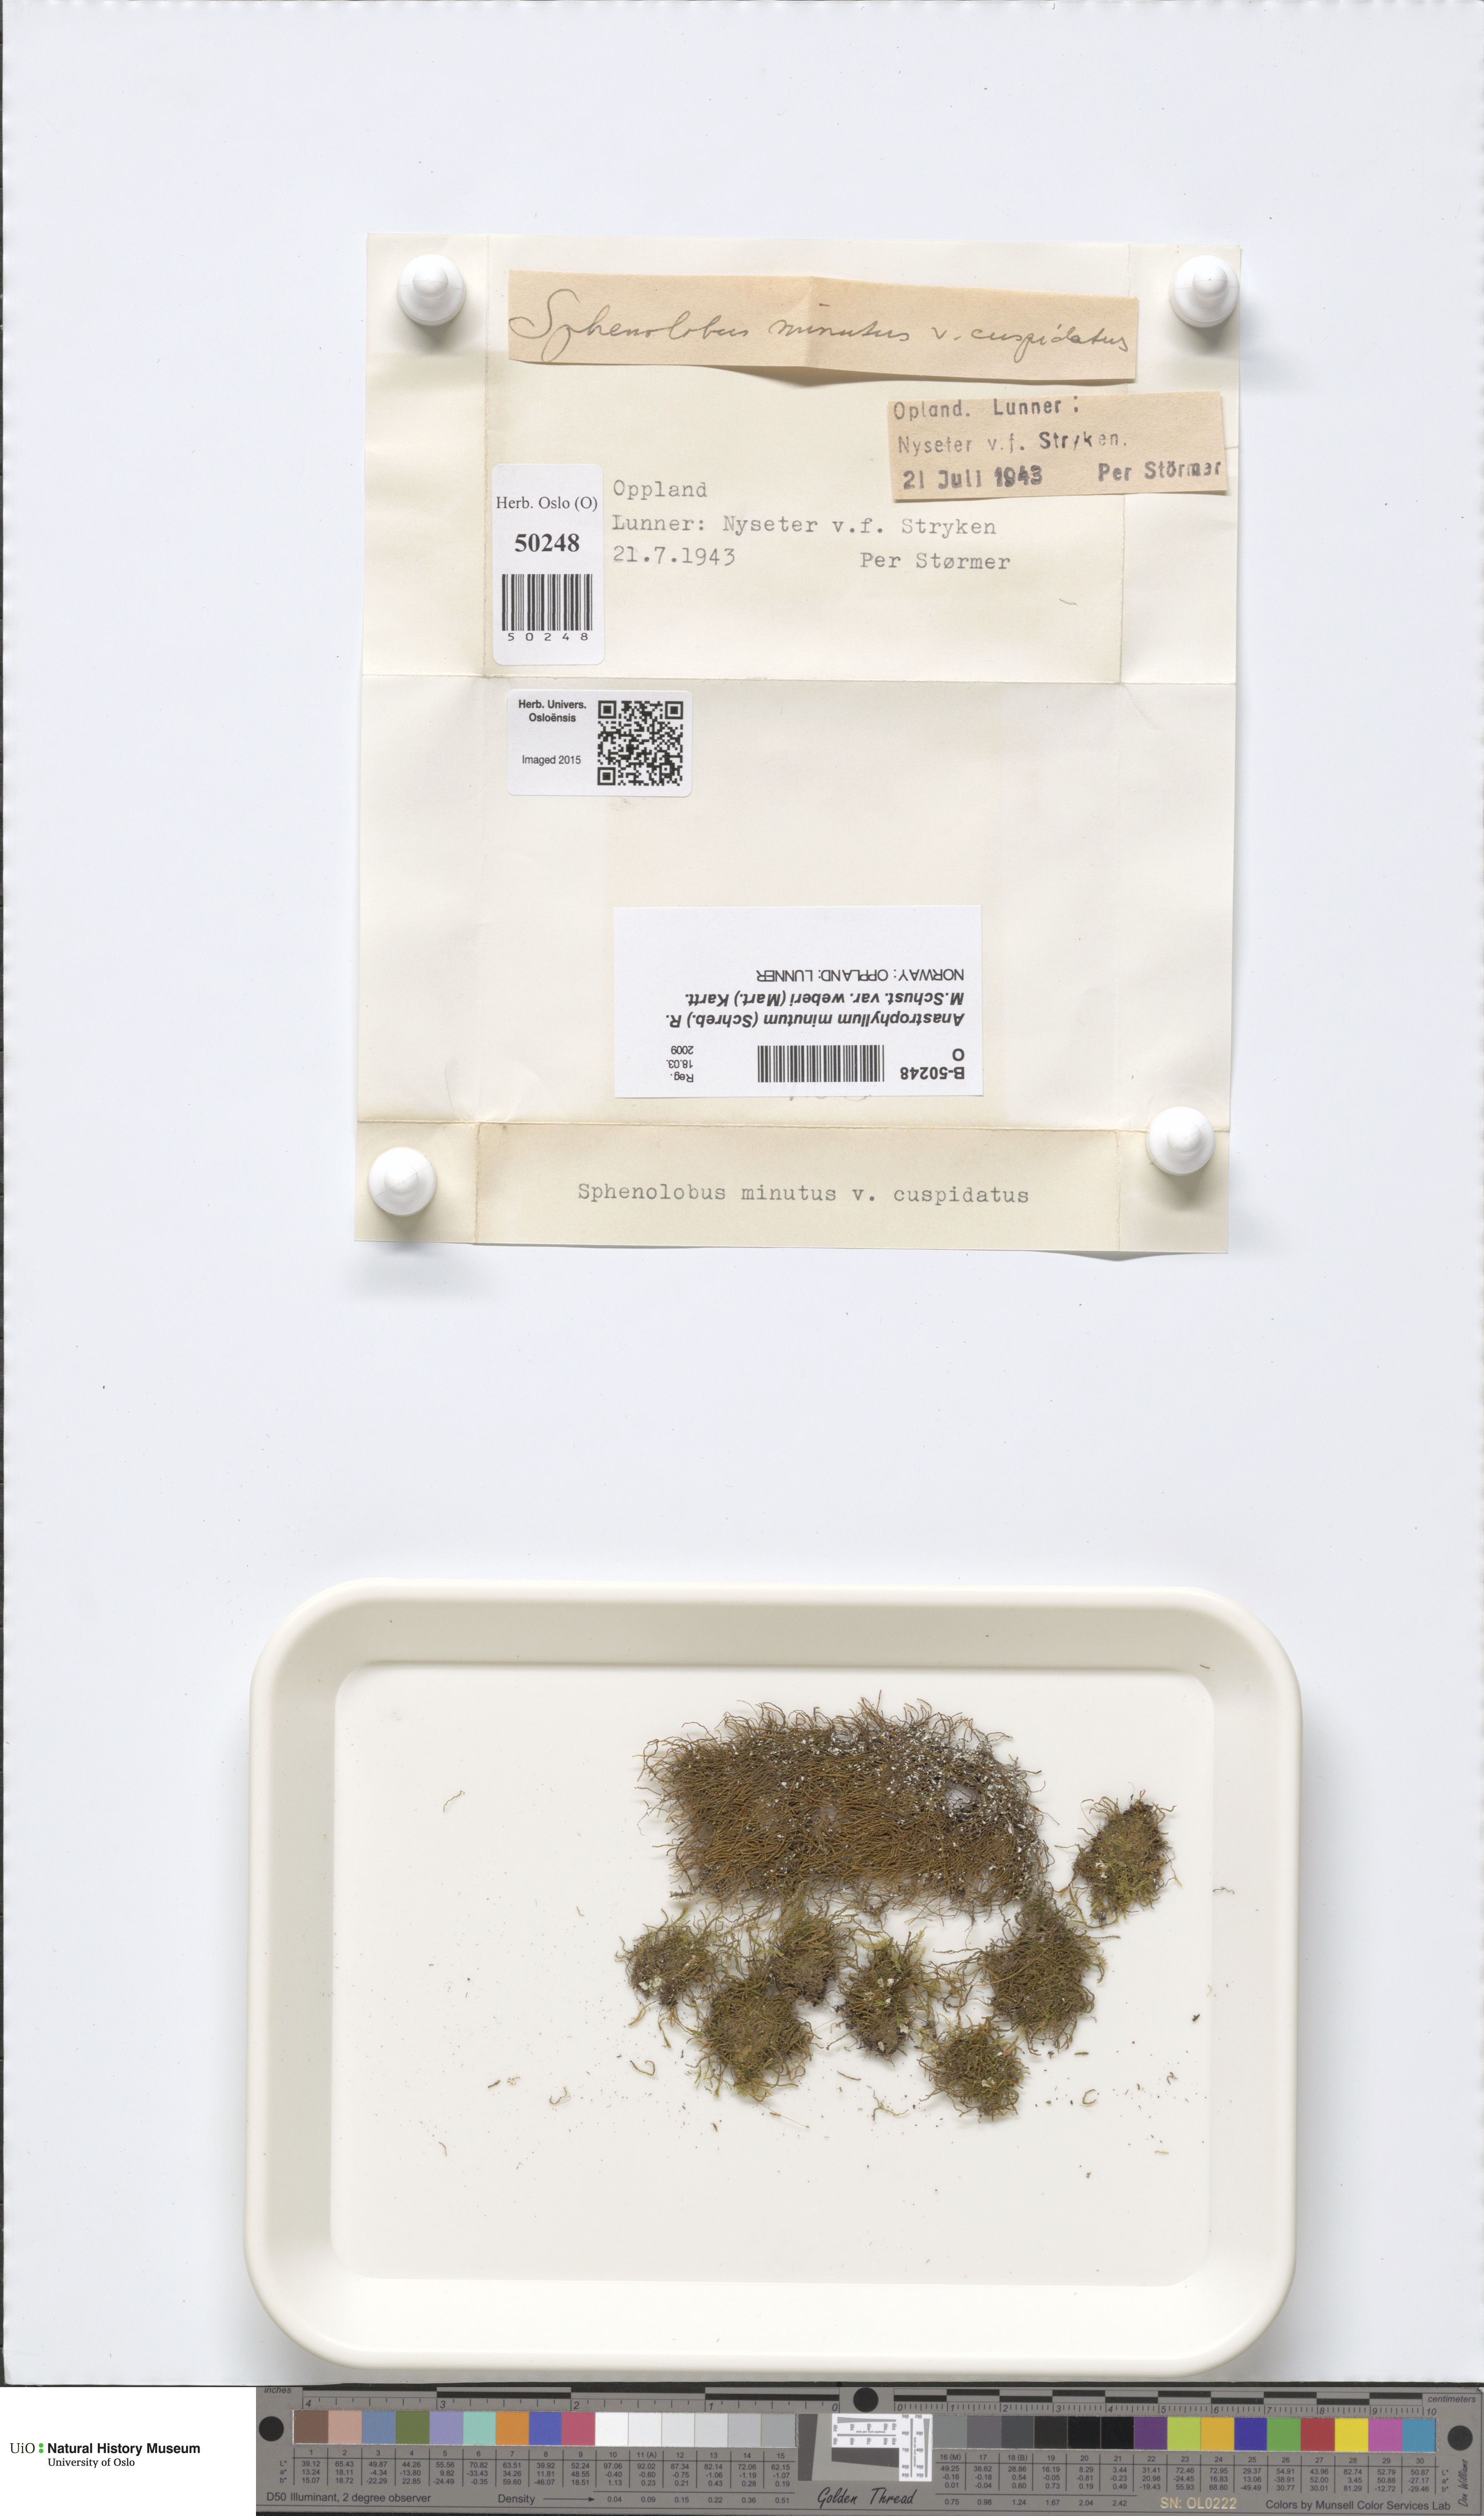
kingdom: Plantae
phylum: Marchantiophyta
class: Jungermanniopsida
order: Jungermanniales
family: Anastrophyllaceae
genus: Sphenolobus
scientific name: Sphenolobus minutus
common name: Comb notchwort
